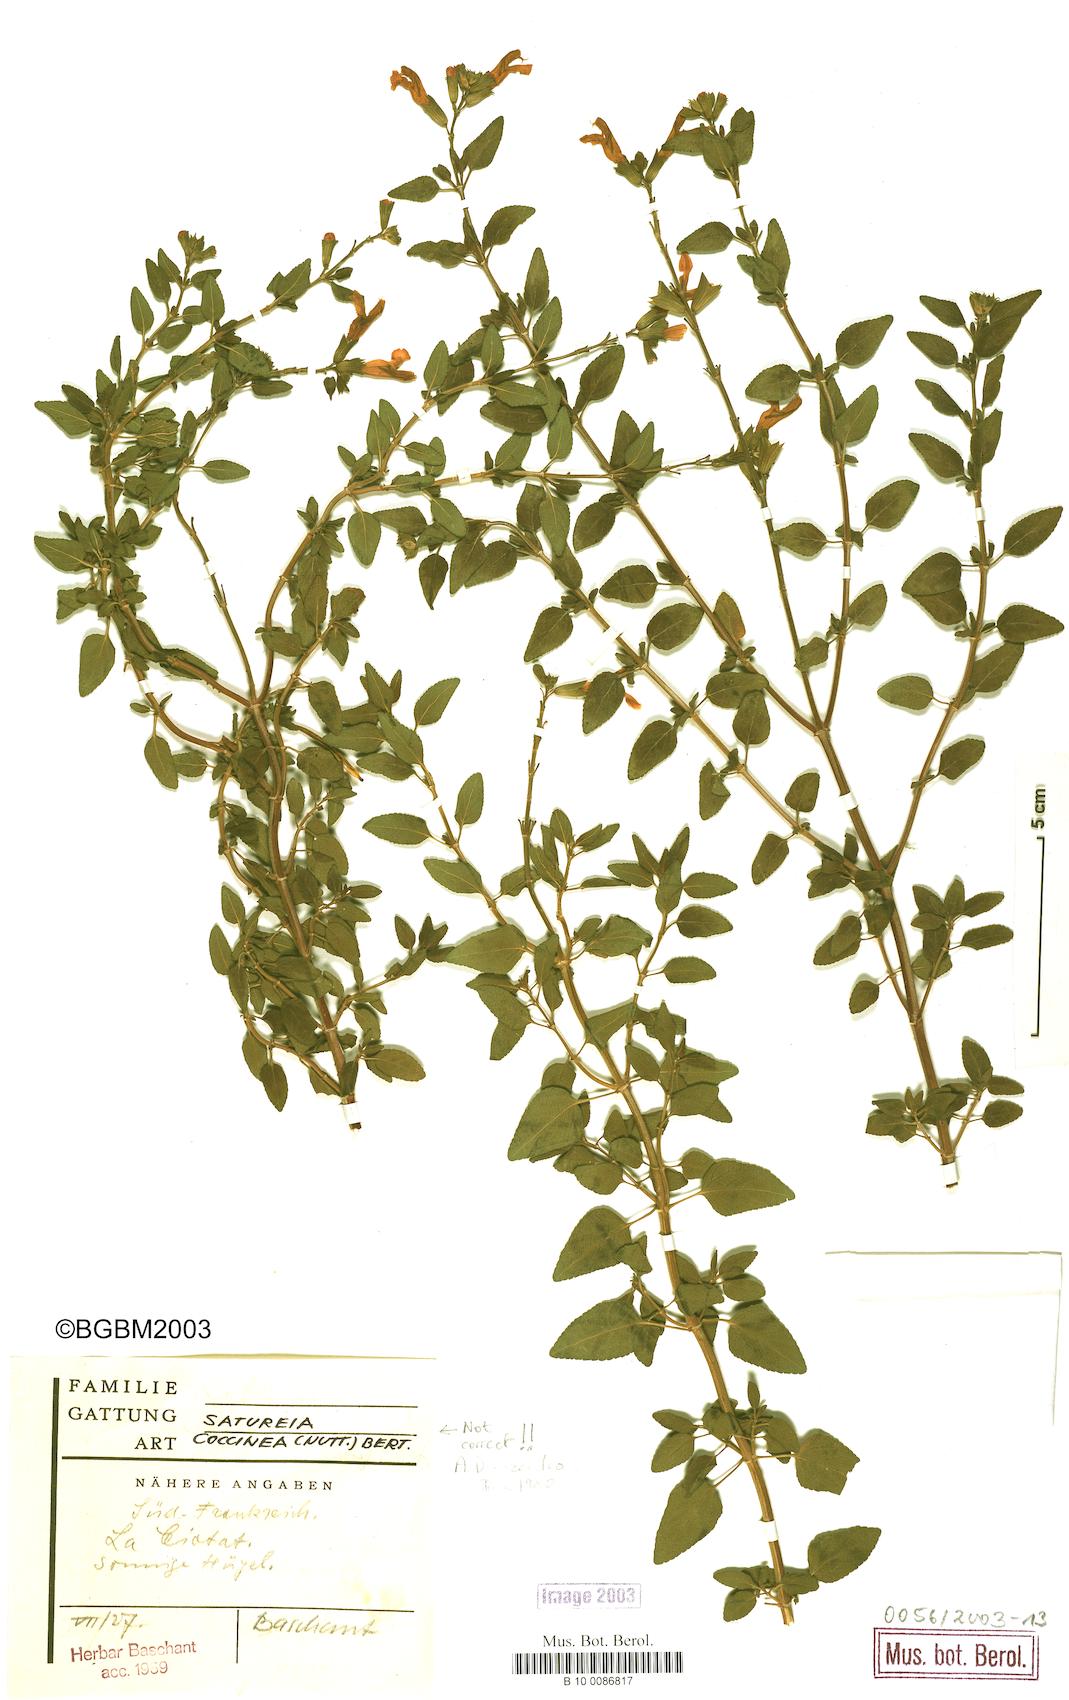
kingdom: Plantae
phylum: Tracheophyta
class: Magnoliopsida
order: Lamiales
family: Lamiaceae
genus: Clinopodium
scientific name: Clinopodium coccineum
